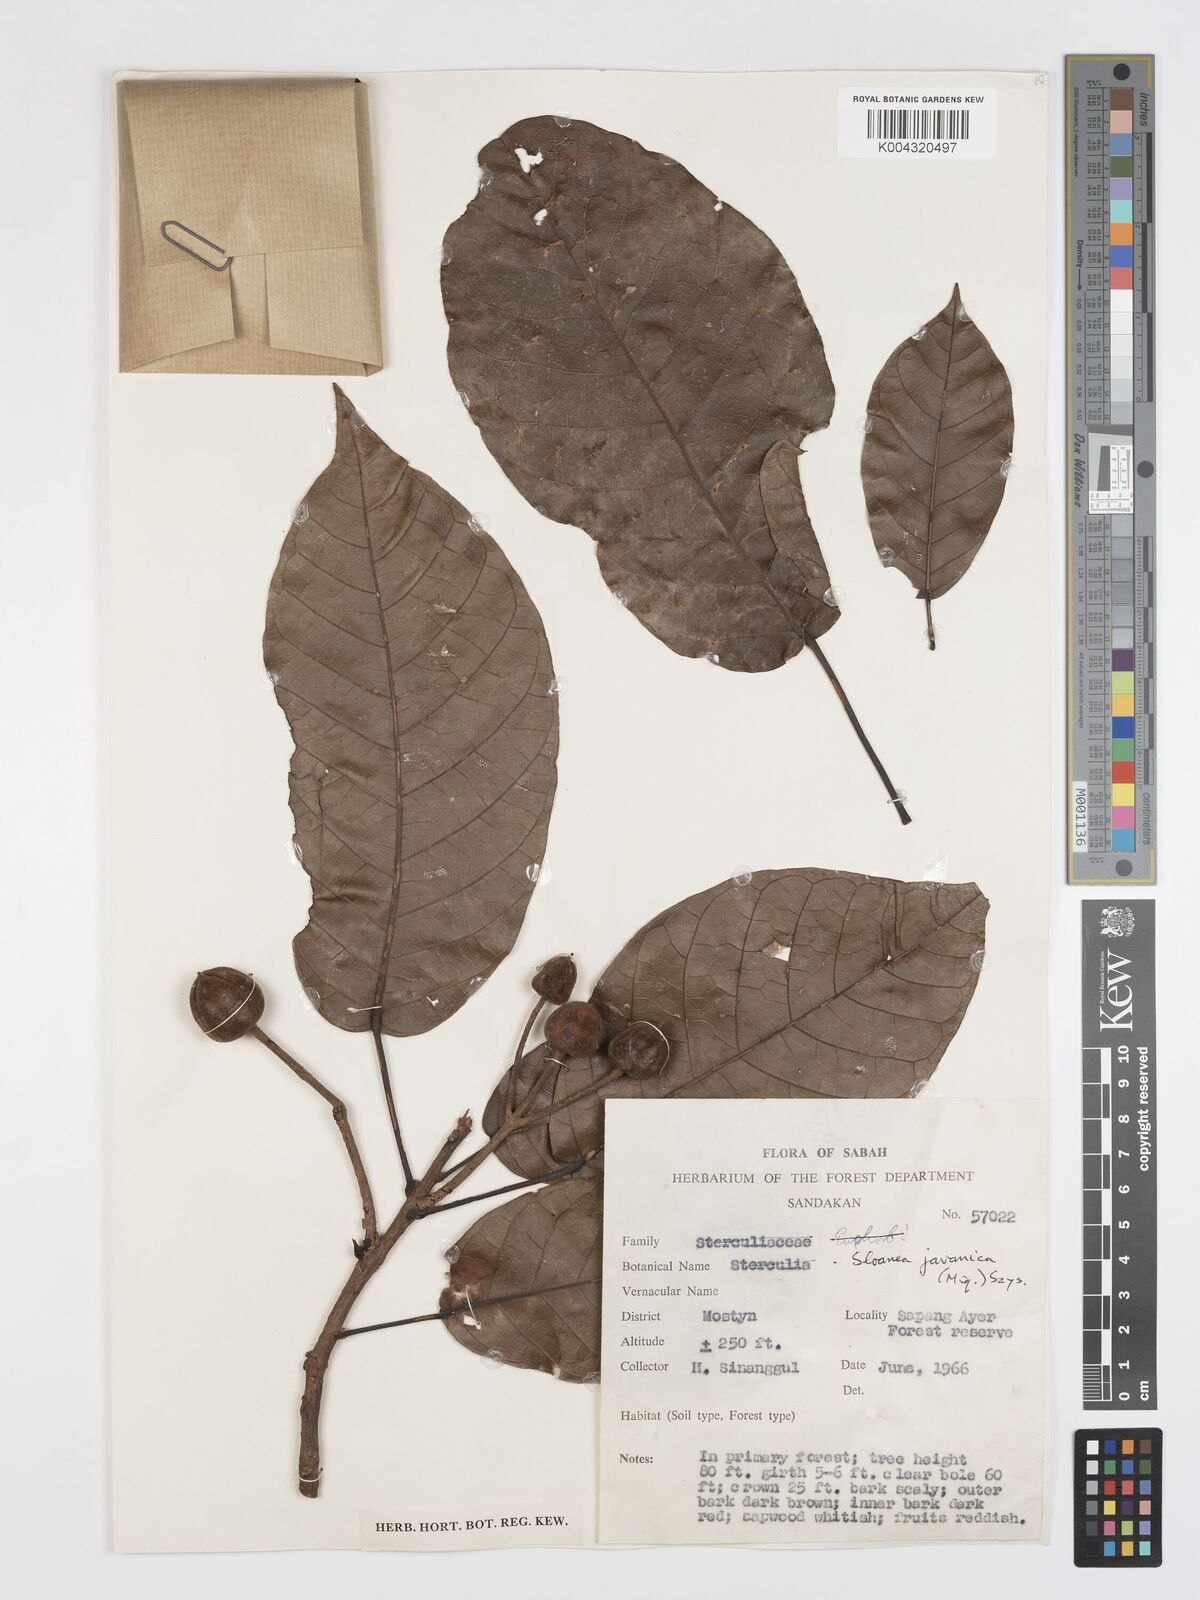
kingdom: Plantae
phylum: Tracheophyta
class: Magnoliopsida
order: Oxalidales
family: Elaeocarpaceae
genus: Sloanea
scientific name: Sloanea javanica
